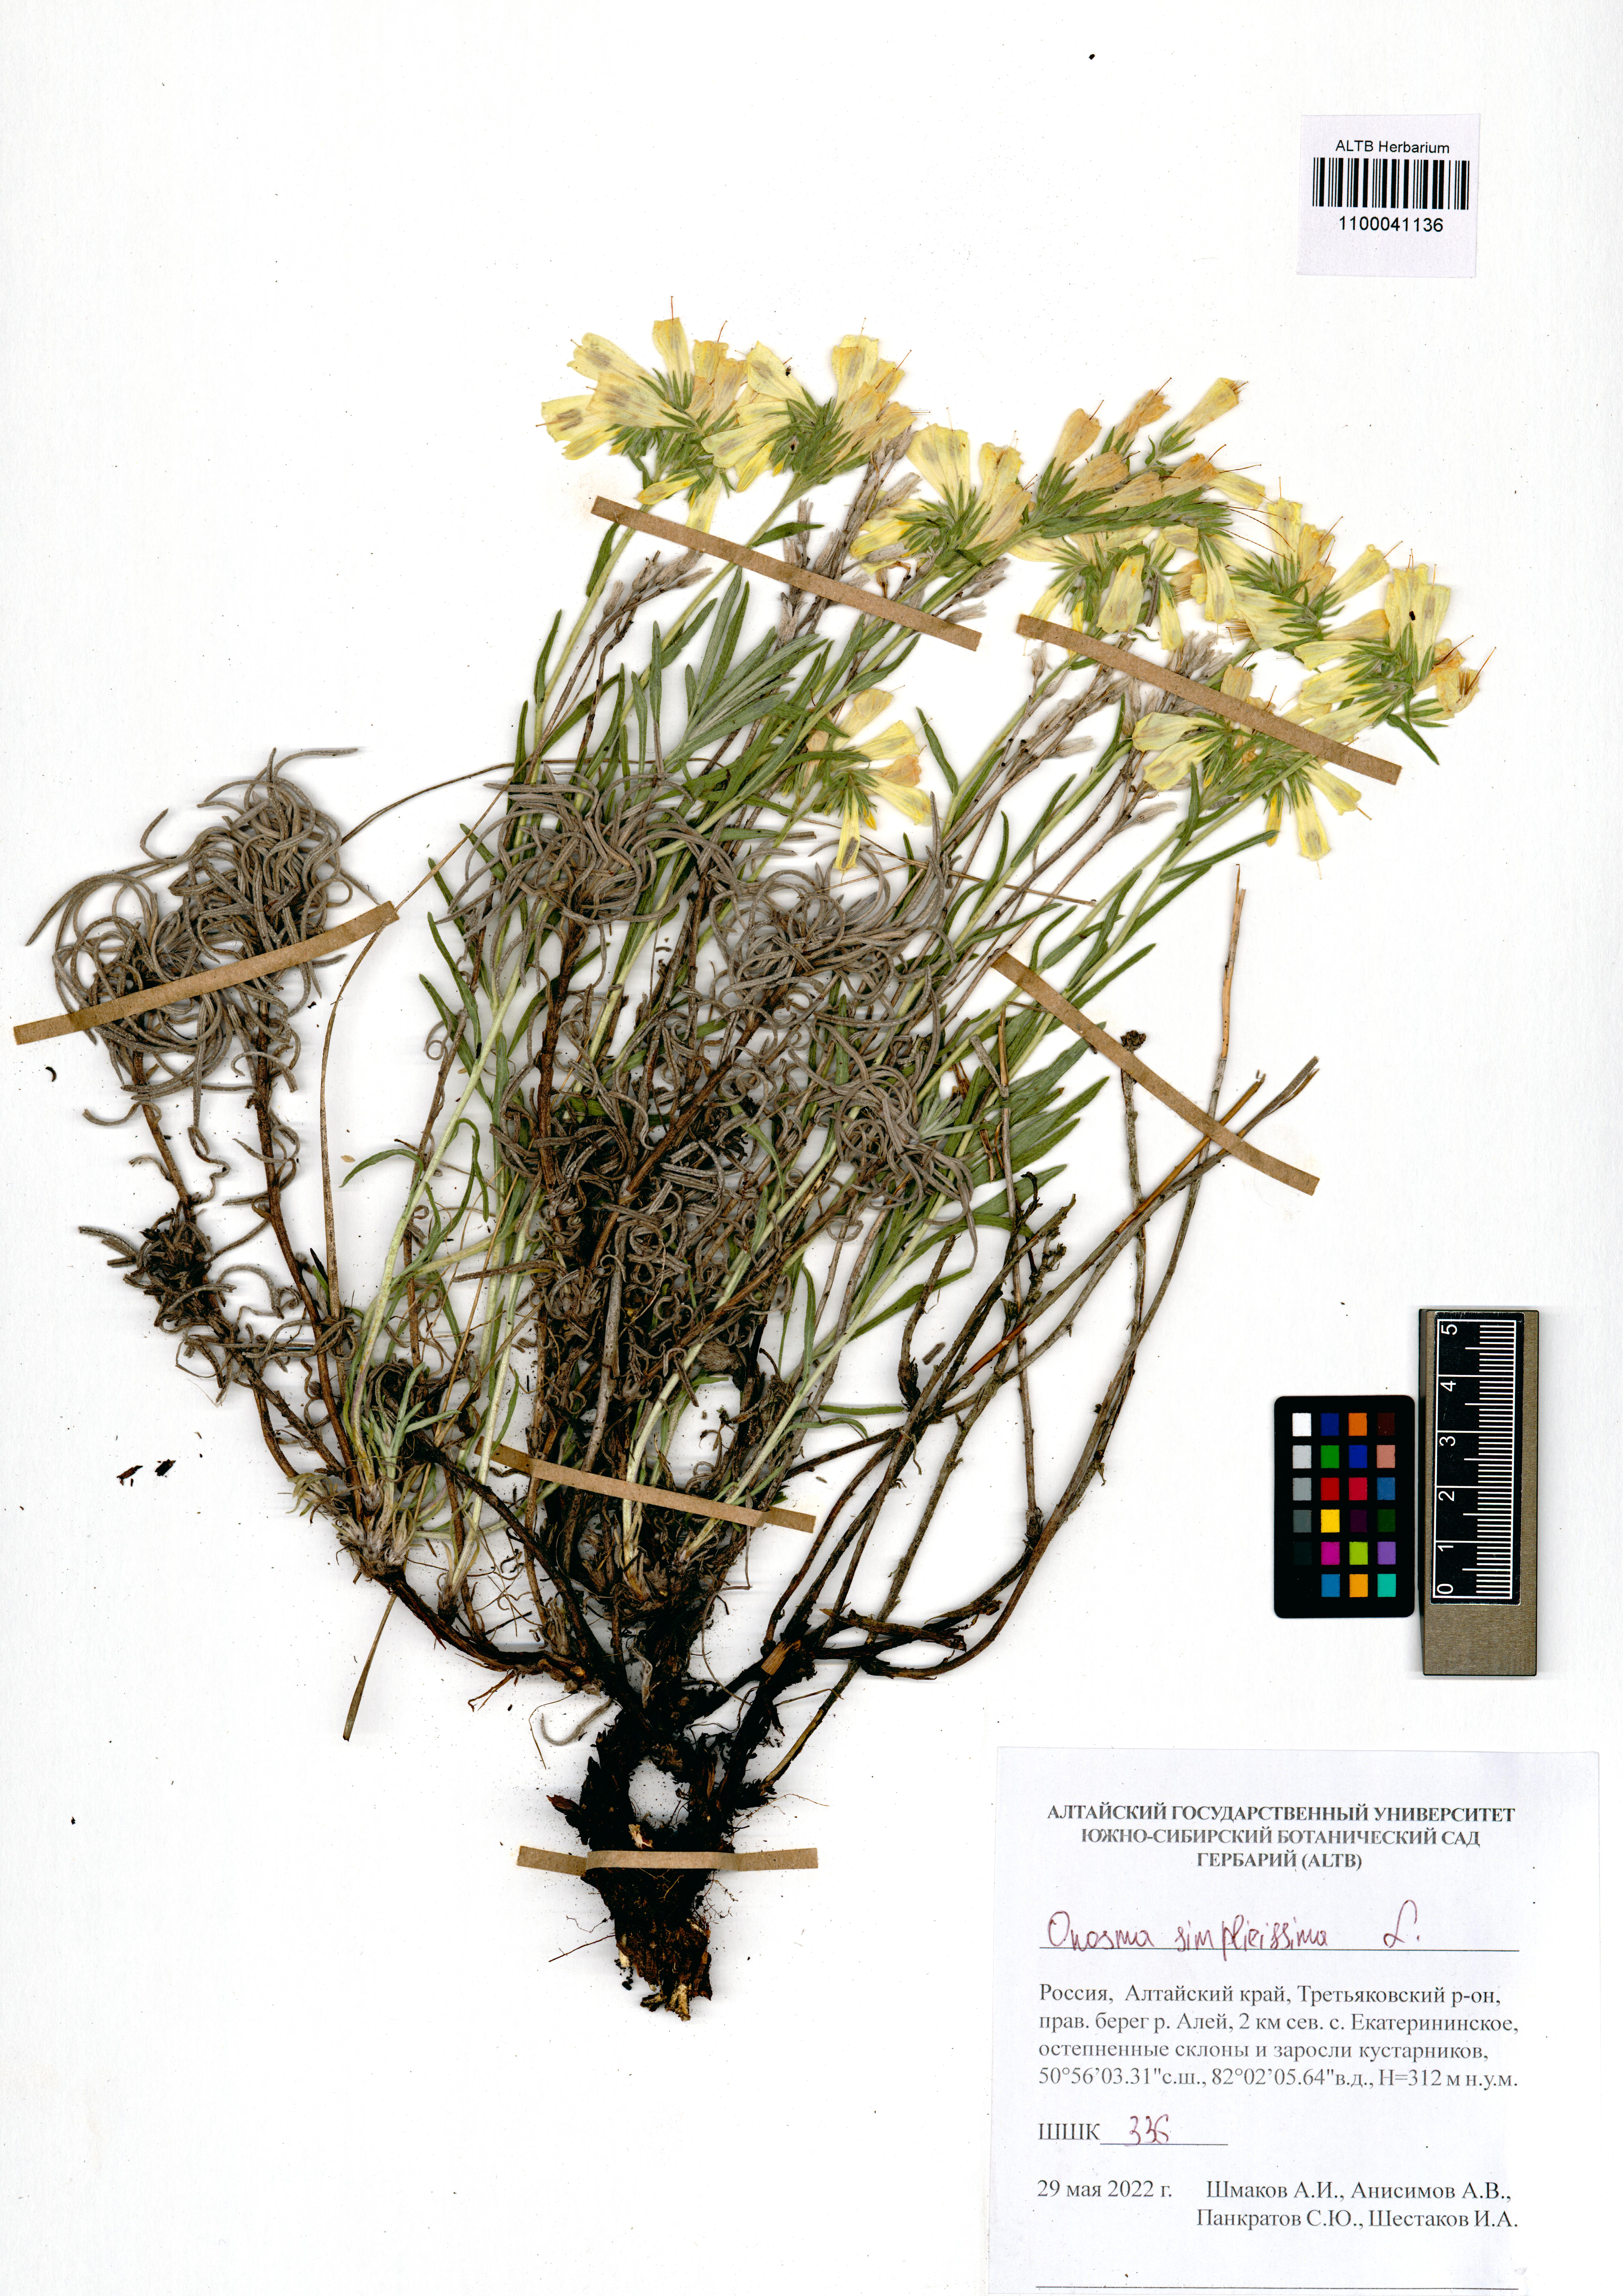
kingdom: Plantae
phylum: Tracheophyta
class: Magnoliopsida
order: Boraginales
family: Boraginaceae
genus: Onosma
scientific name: Onosma simplicissima
